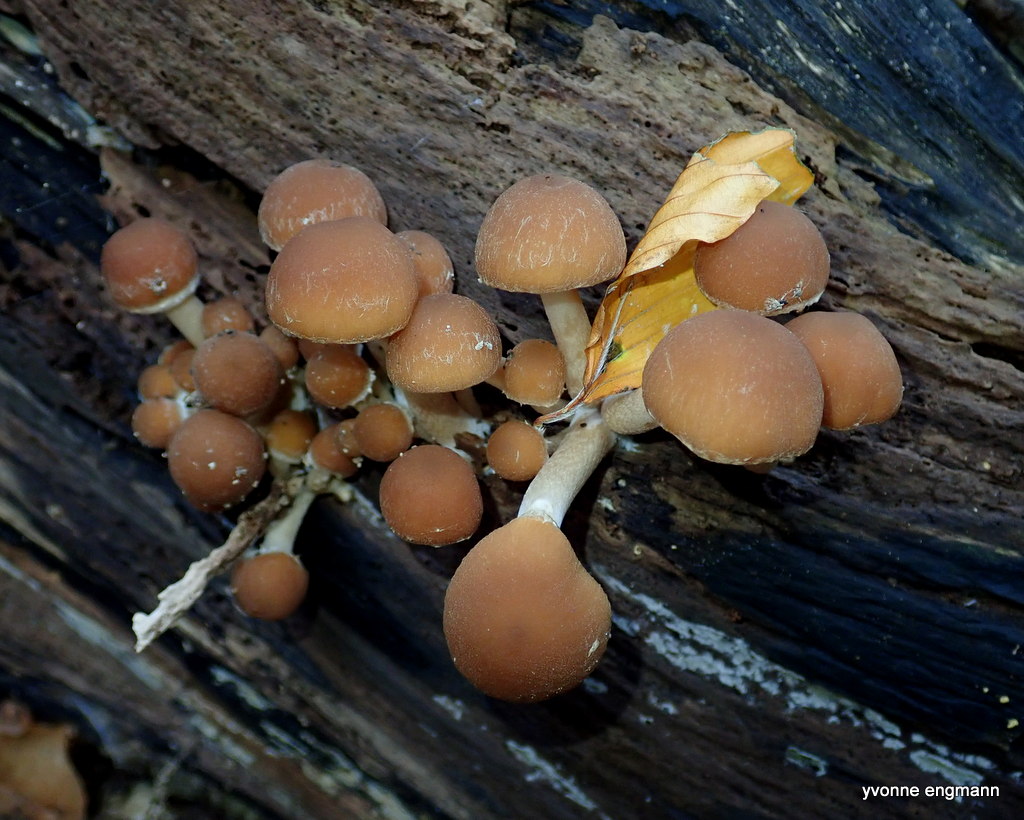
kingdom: Fungi
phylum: Basidiomycota
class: Agaricomycetes
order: Agaricales
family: Psathyrellaceae
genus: Psathyrella
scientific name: Psathyrella piluliformis
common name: lysstokket mørkhat
